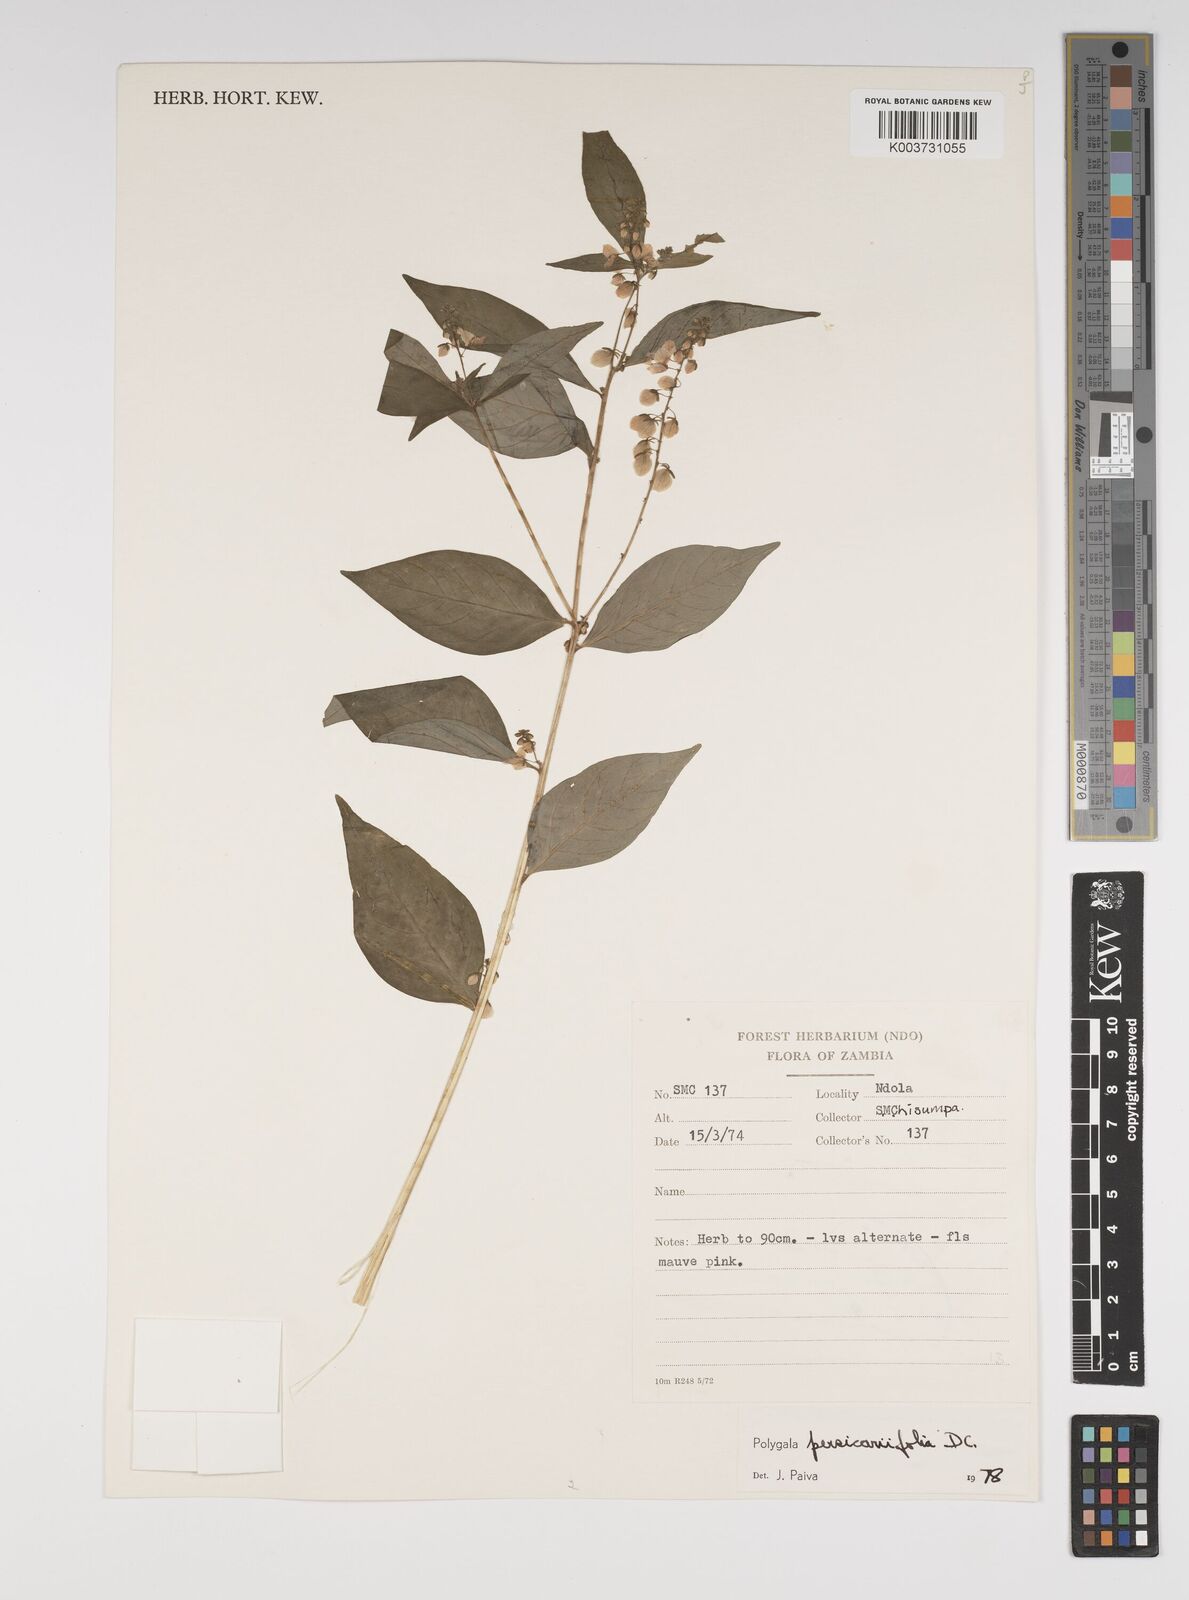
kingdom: Plantae
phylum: Tracheophyta
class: Magnoliopsida
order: Fabales
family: Polygalaceae
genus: Polygala
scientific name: Polygala persicariifolia
